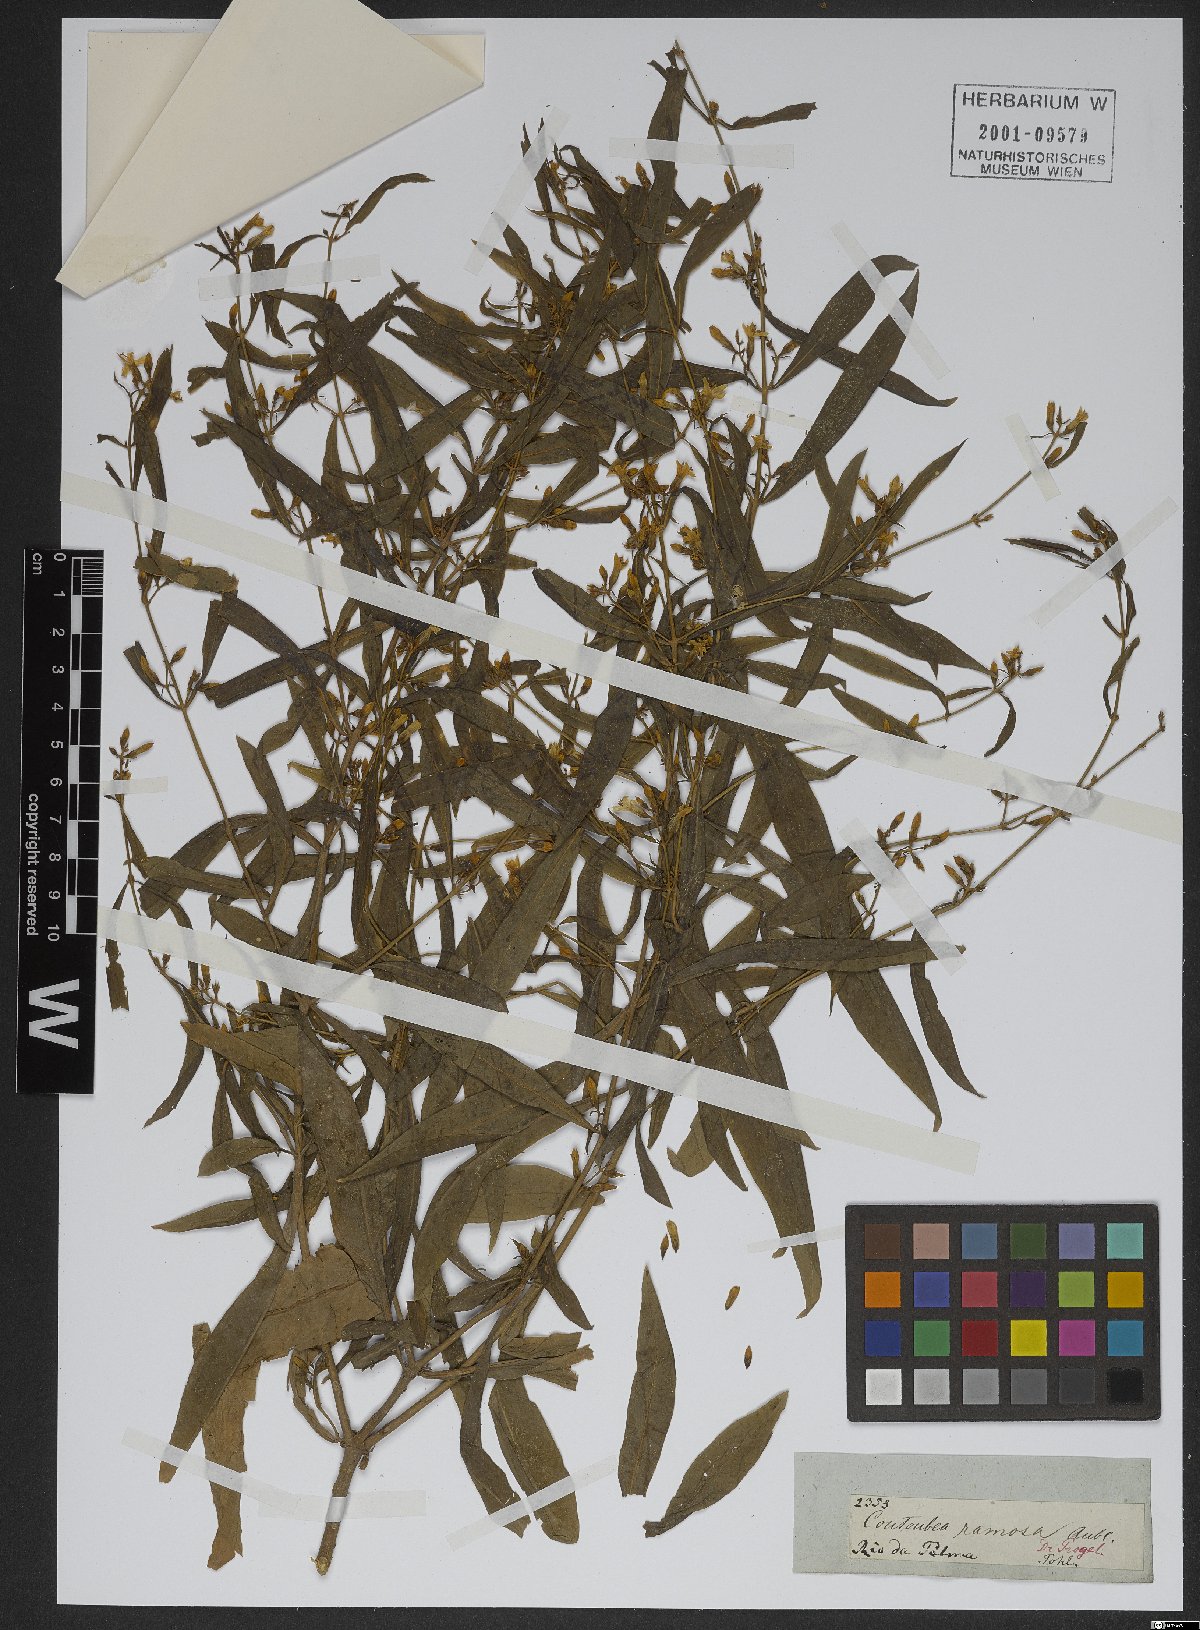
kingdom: Plantae
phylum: Tracheophyta
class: Magnoliopsida
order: Gentianales
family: Gentianaceae
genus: Coutoubea
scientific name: Coutoubea ramosa
